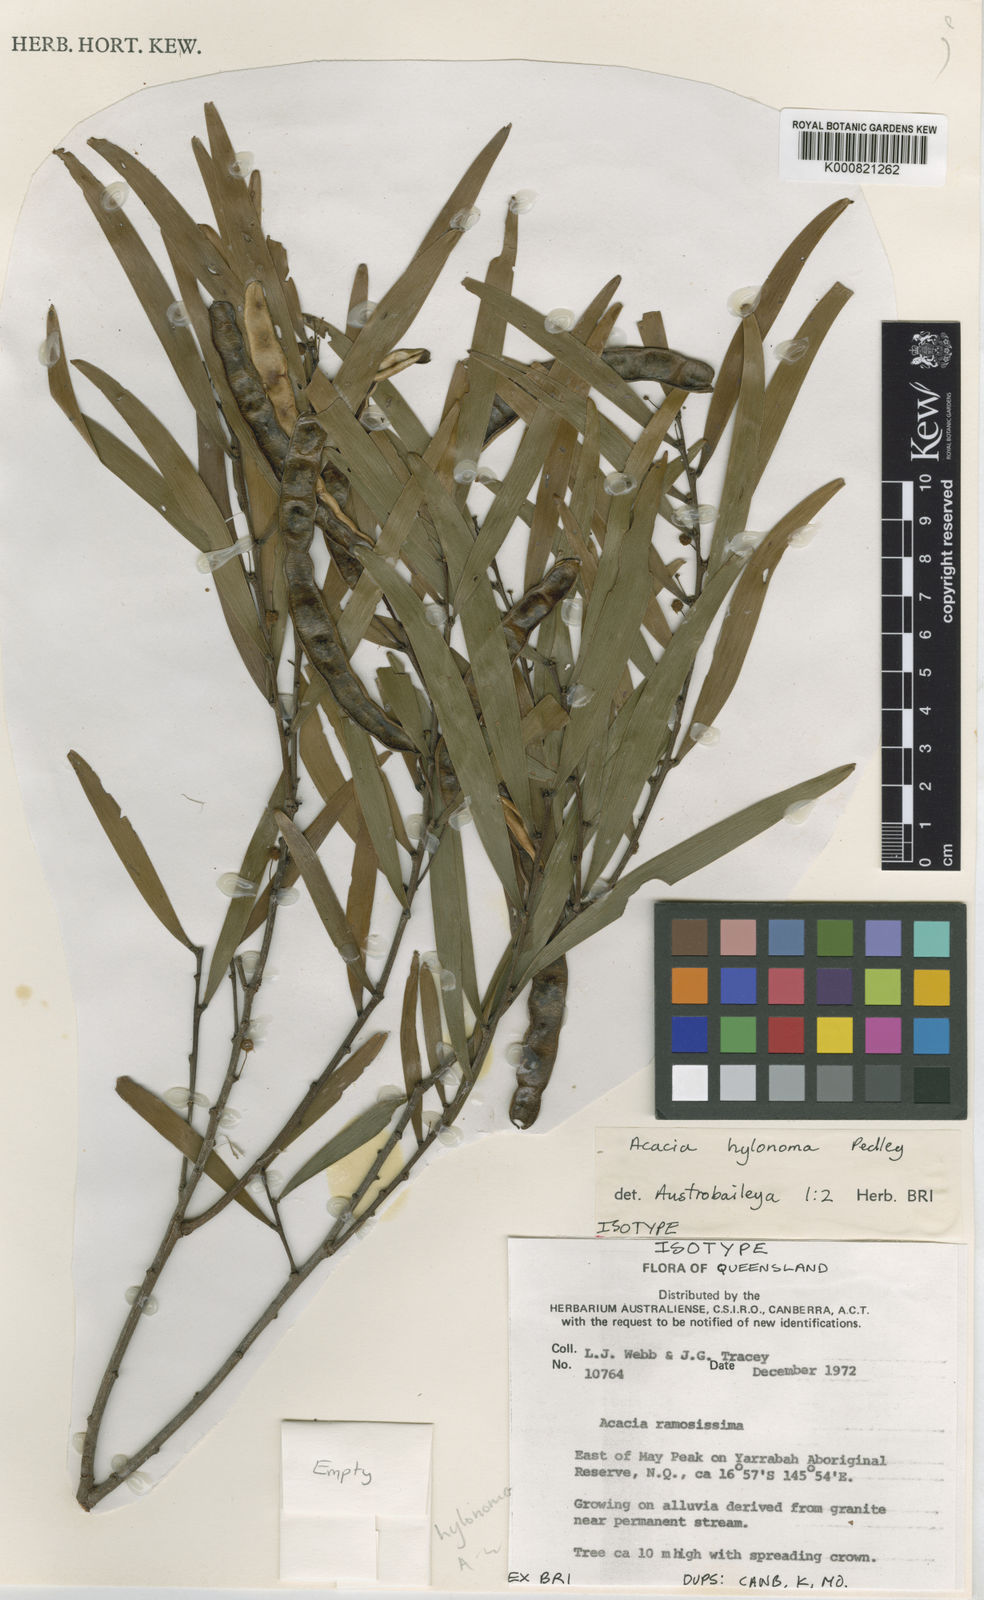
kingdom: Plantae
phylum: Tracheophyta
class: Magnoliopsida
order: Fabales
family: Fabaceae
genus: Acacia
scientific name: Acacia hylonoma
